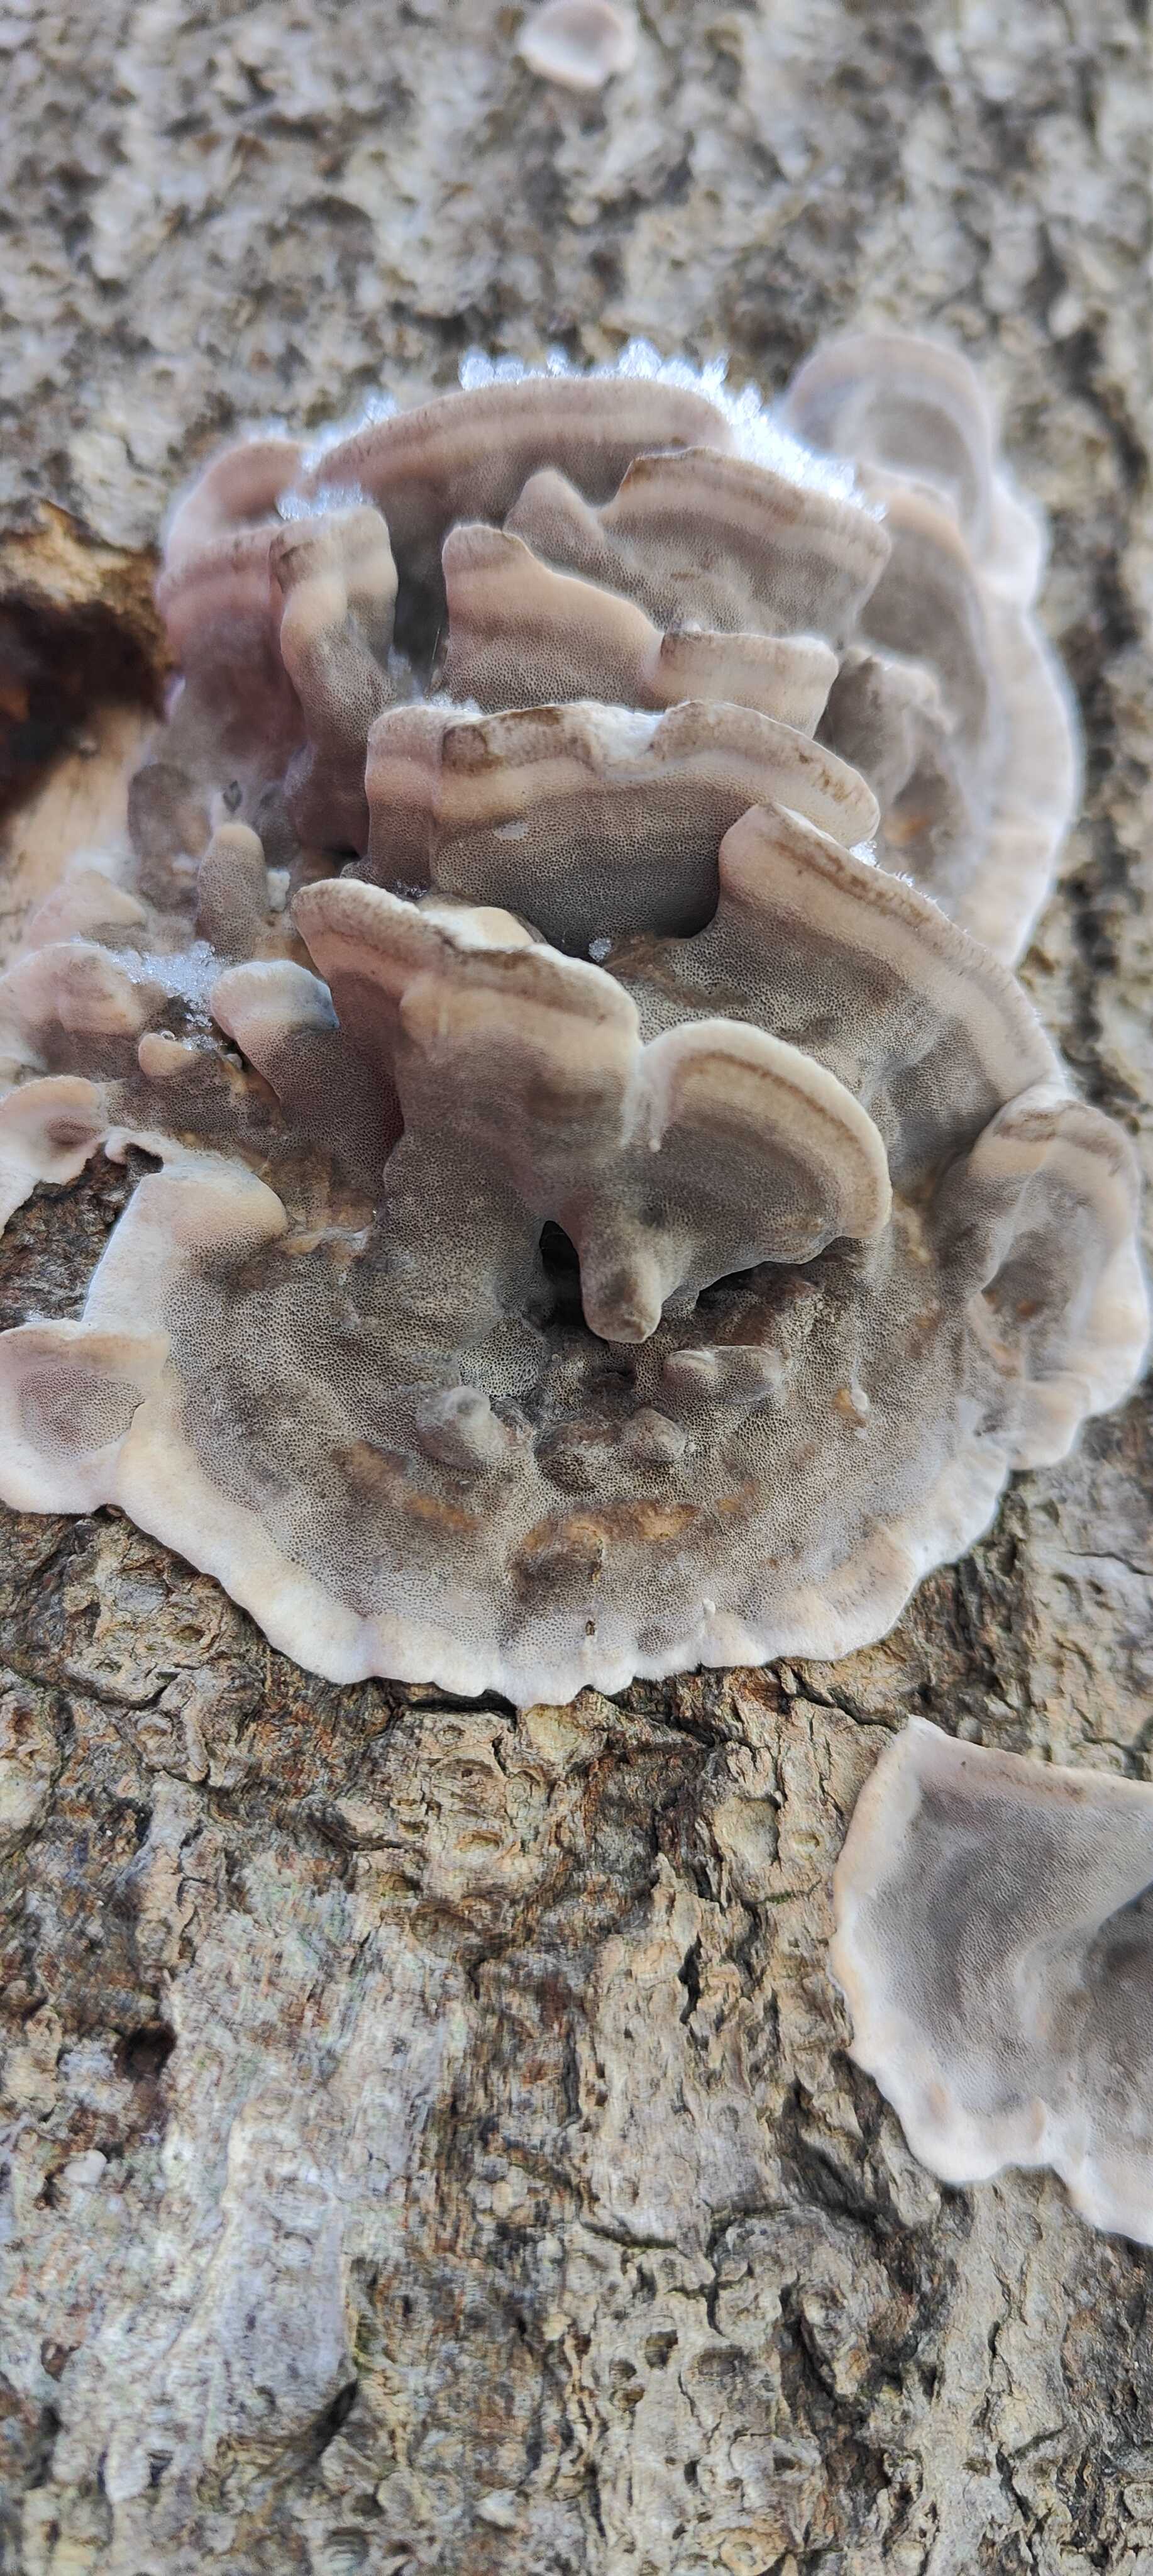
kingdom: Fungi
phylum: Basidiomycota
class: Agaricomycetes
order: Polyporales
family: Phanerochaetaceae
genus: Bjerkandera
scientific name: Bjerkandera adusta
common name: sveden sodporesvamp
